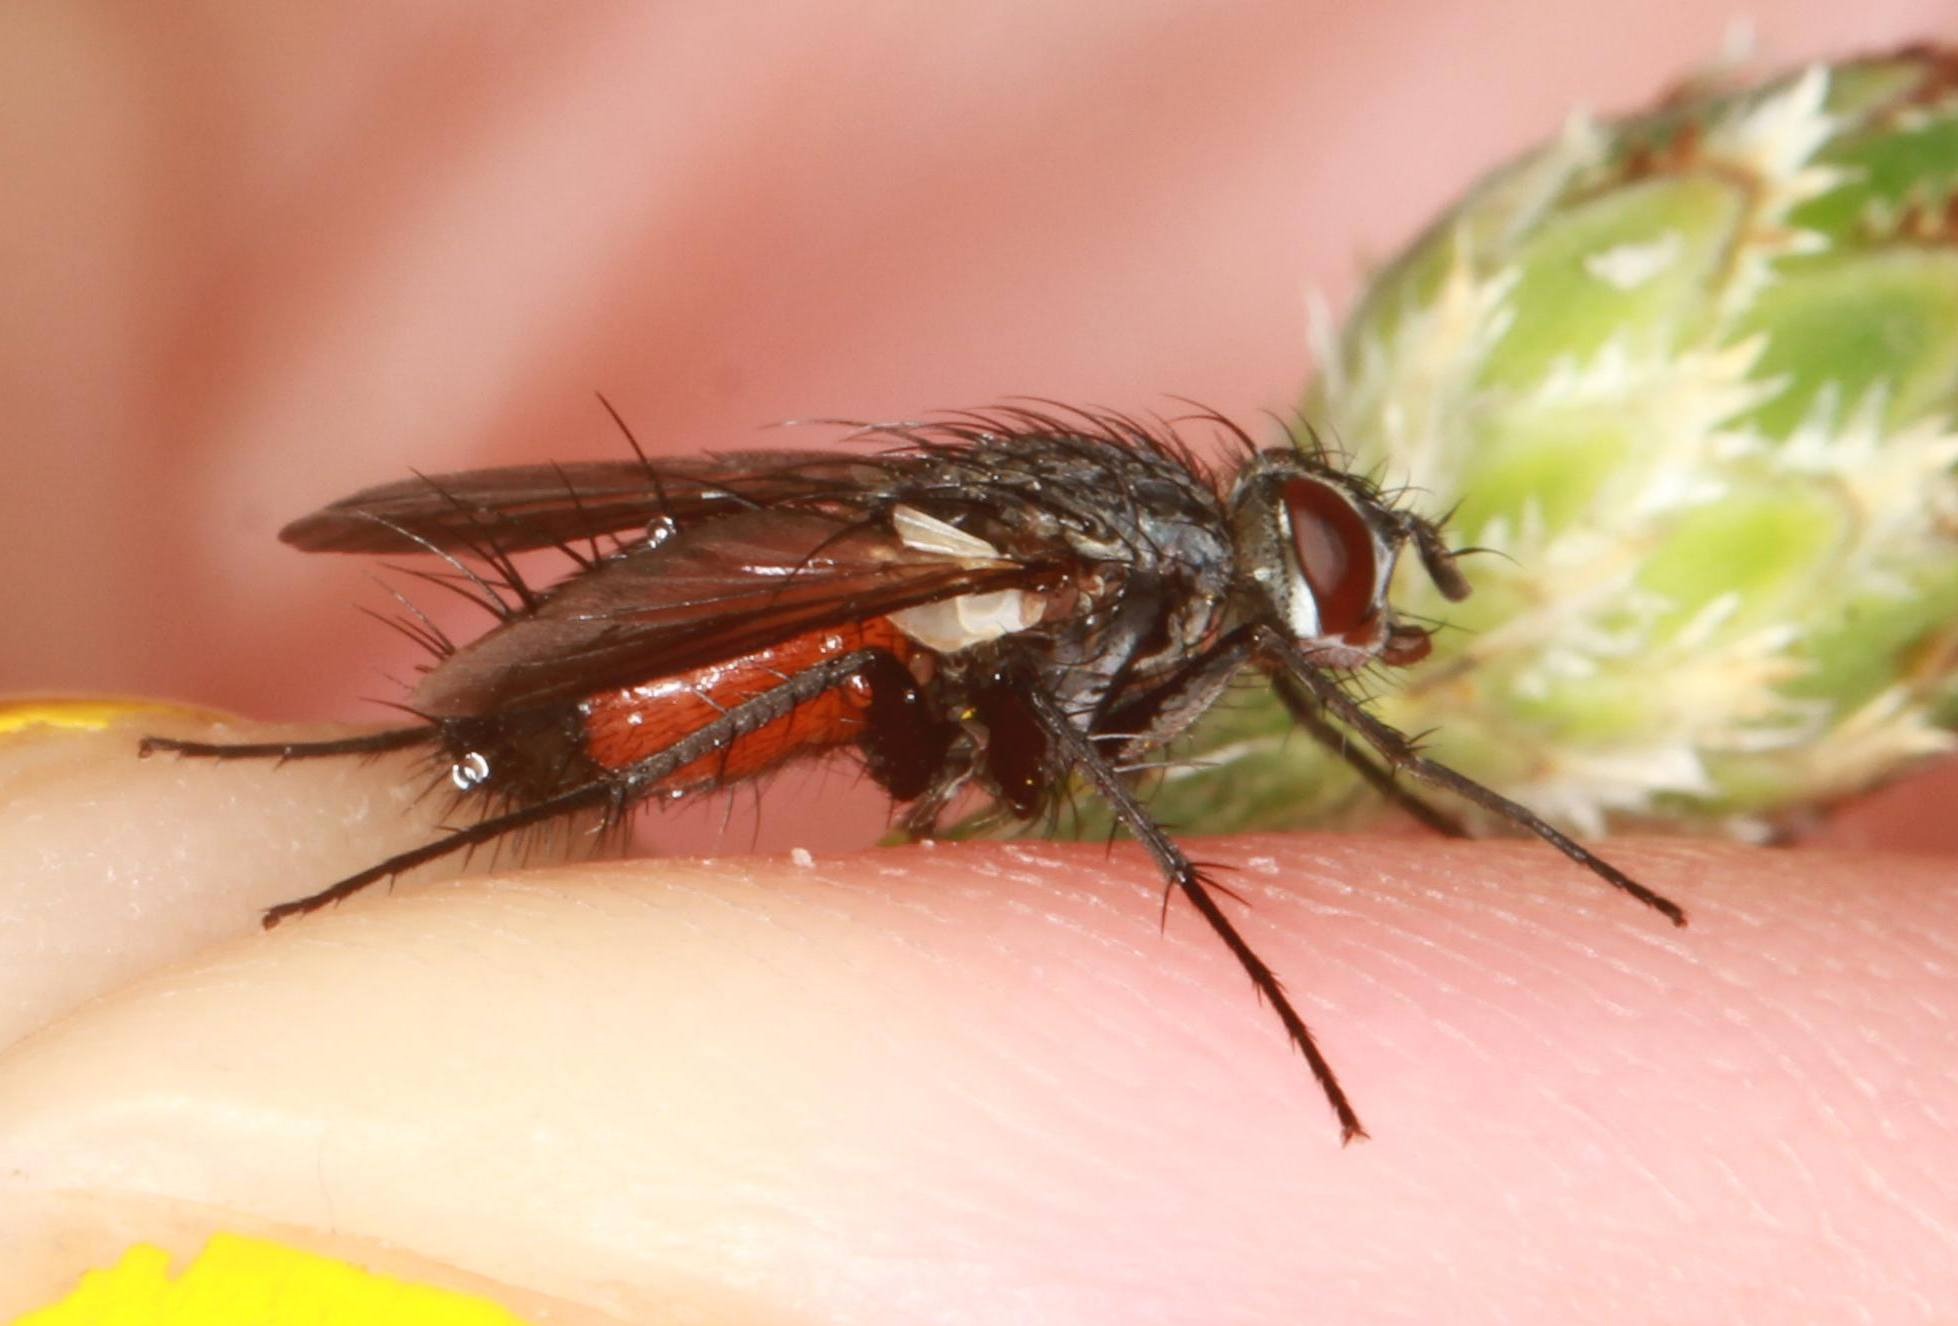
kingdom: Animalia
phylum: Arthropoda
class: Insecta
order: Diptera
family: Tachinidae
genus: Eriothrix
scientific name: Eriothrix rufomaculatus
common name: Rød snylteflue
